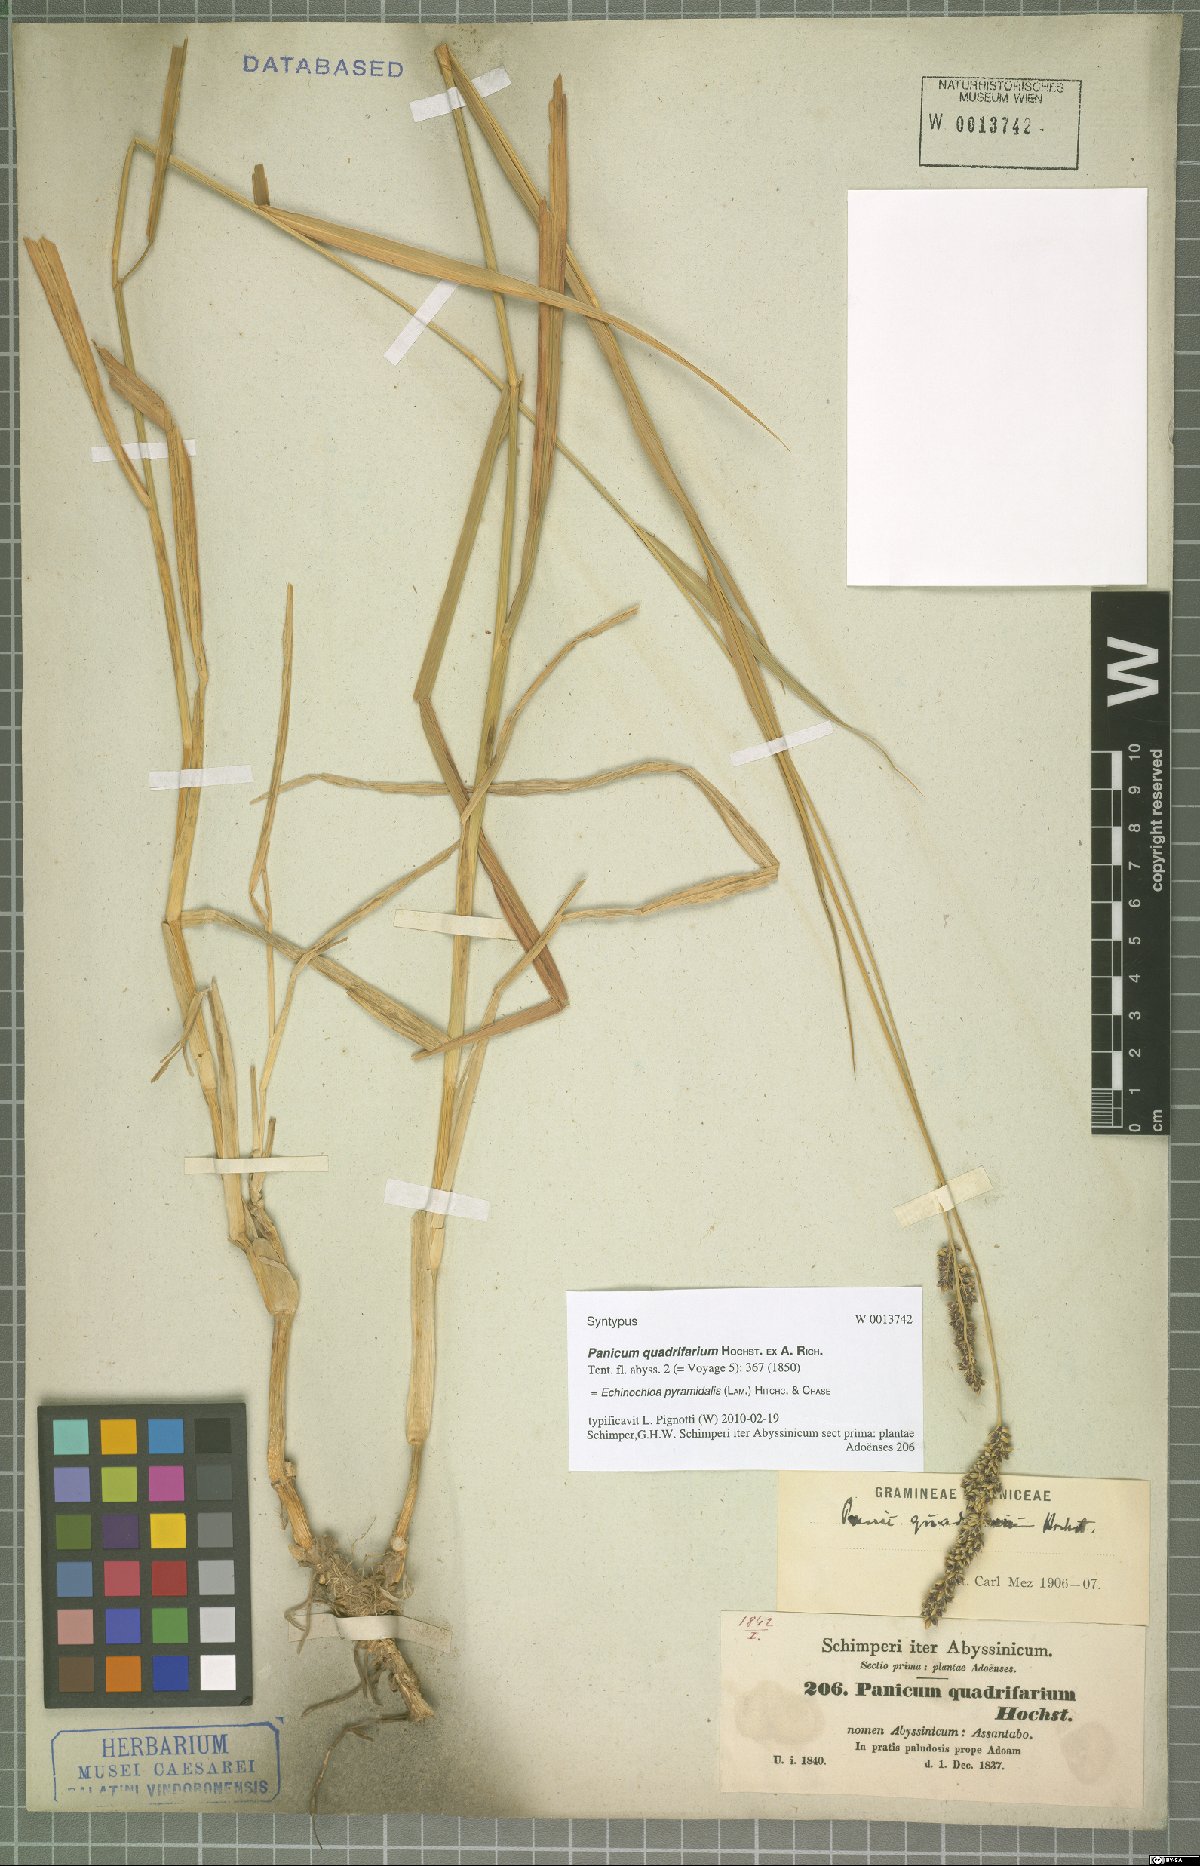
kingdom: Plantae
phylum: Tracheophyta
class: Liliopsida
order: Poales
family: Poaceae
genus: Echinochloa
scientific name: Echinochloa pyramidalis
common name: Antelope grass
